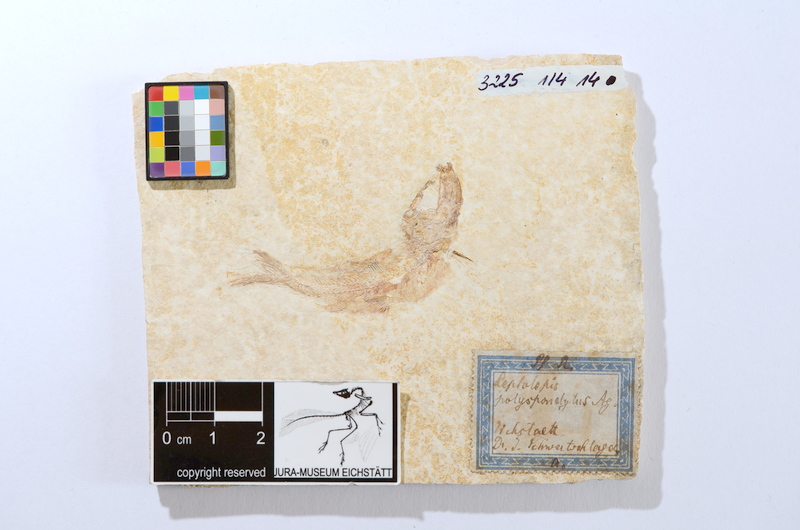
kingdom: Animalia
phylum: Chordata
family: Ascalaboidae
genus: Tharsis
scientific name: Tharsis dubius
